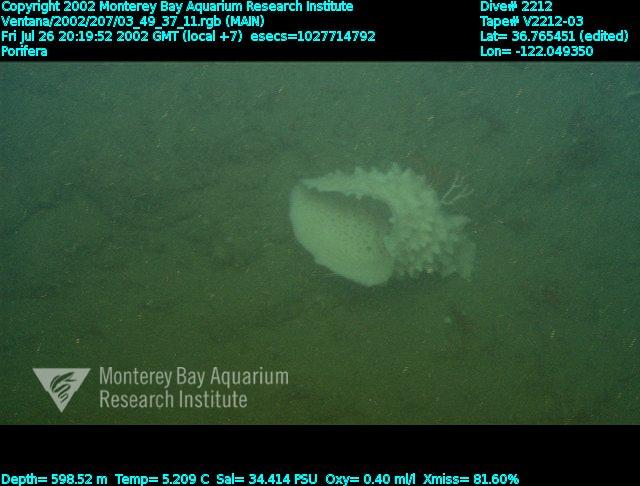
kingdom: Animalia
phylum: Porifera
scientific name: Porifera
